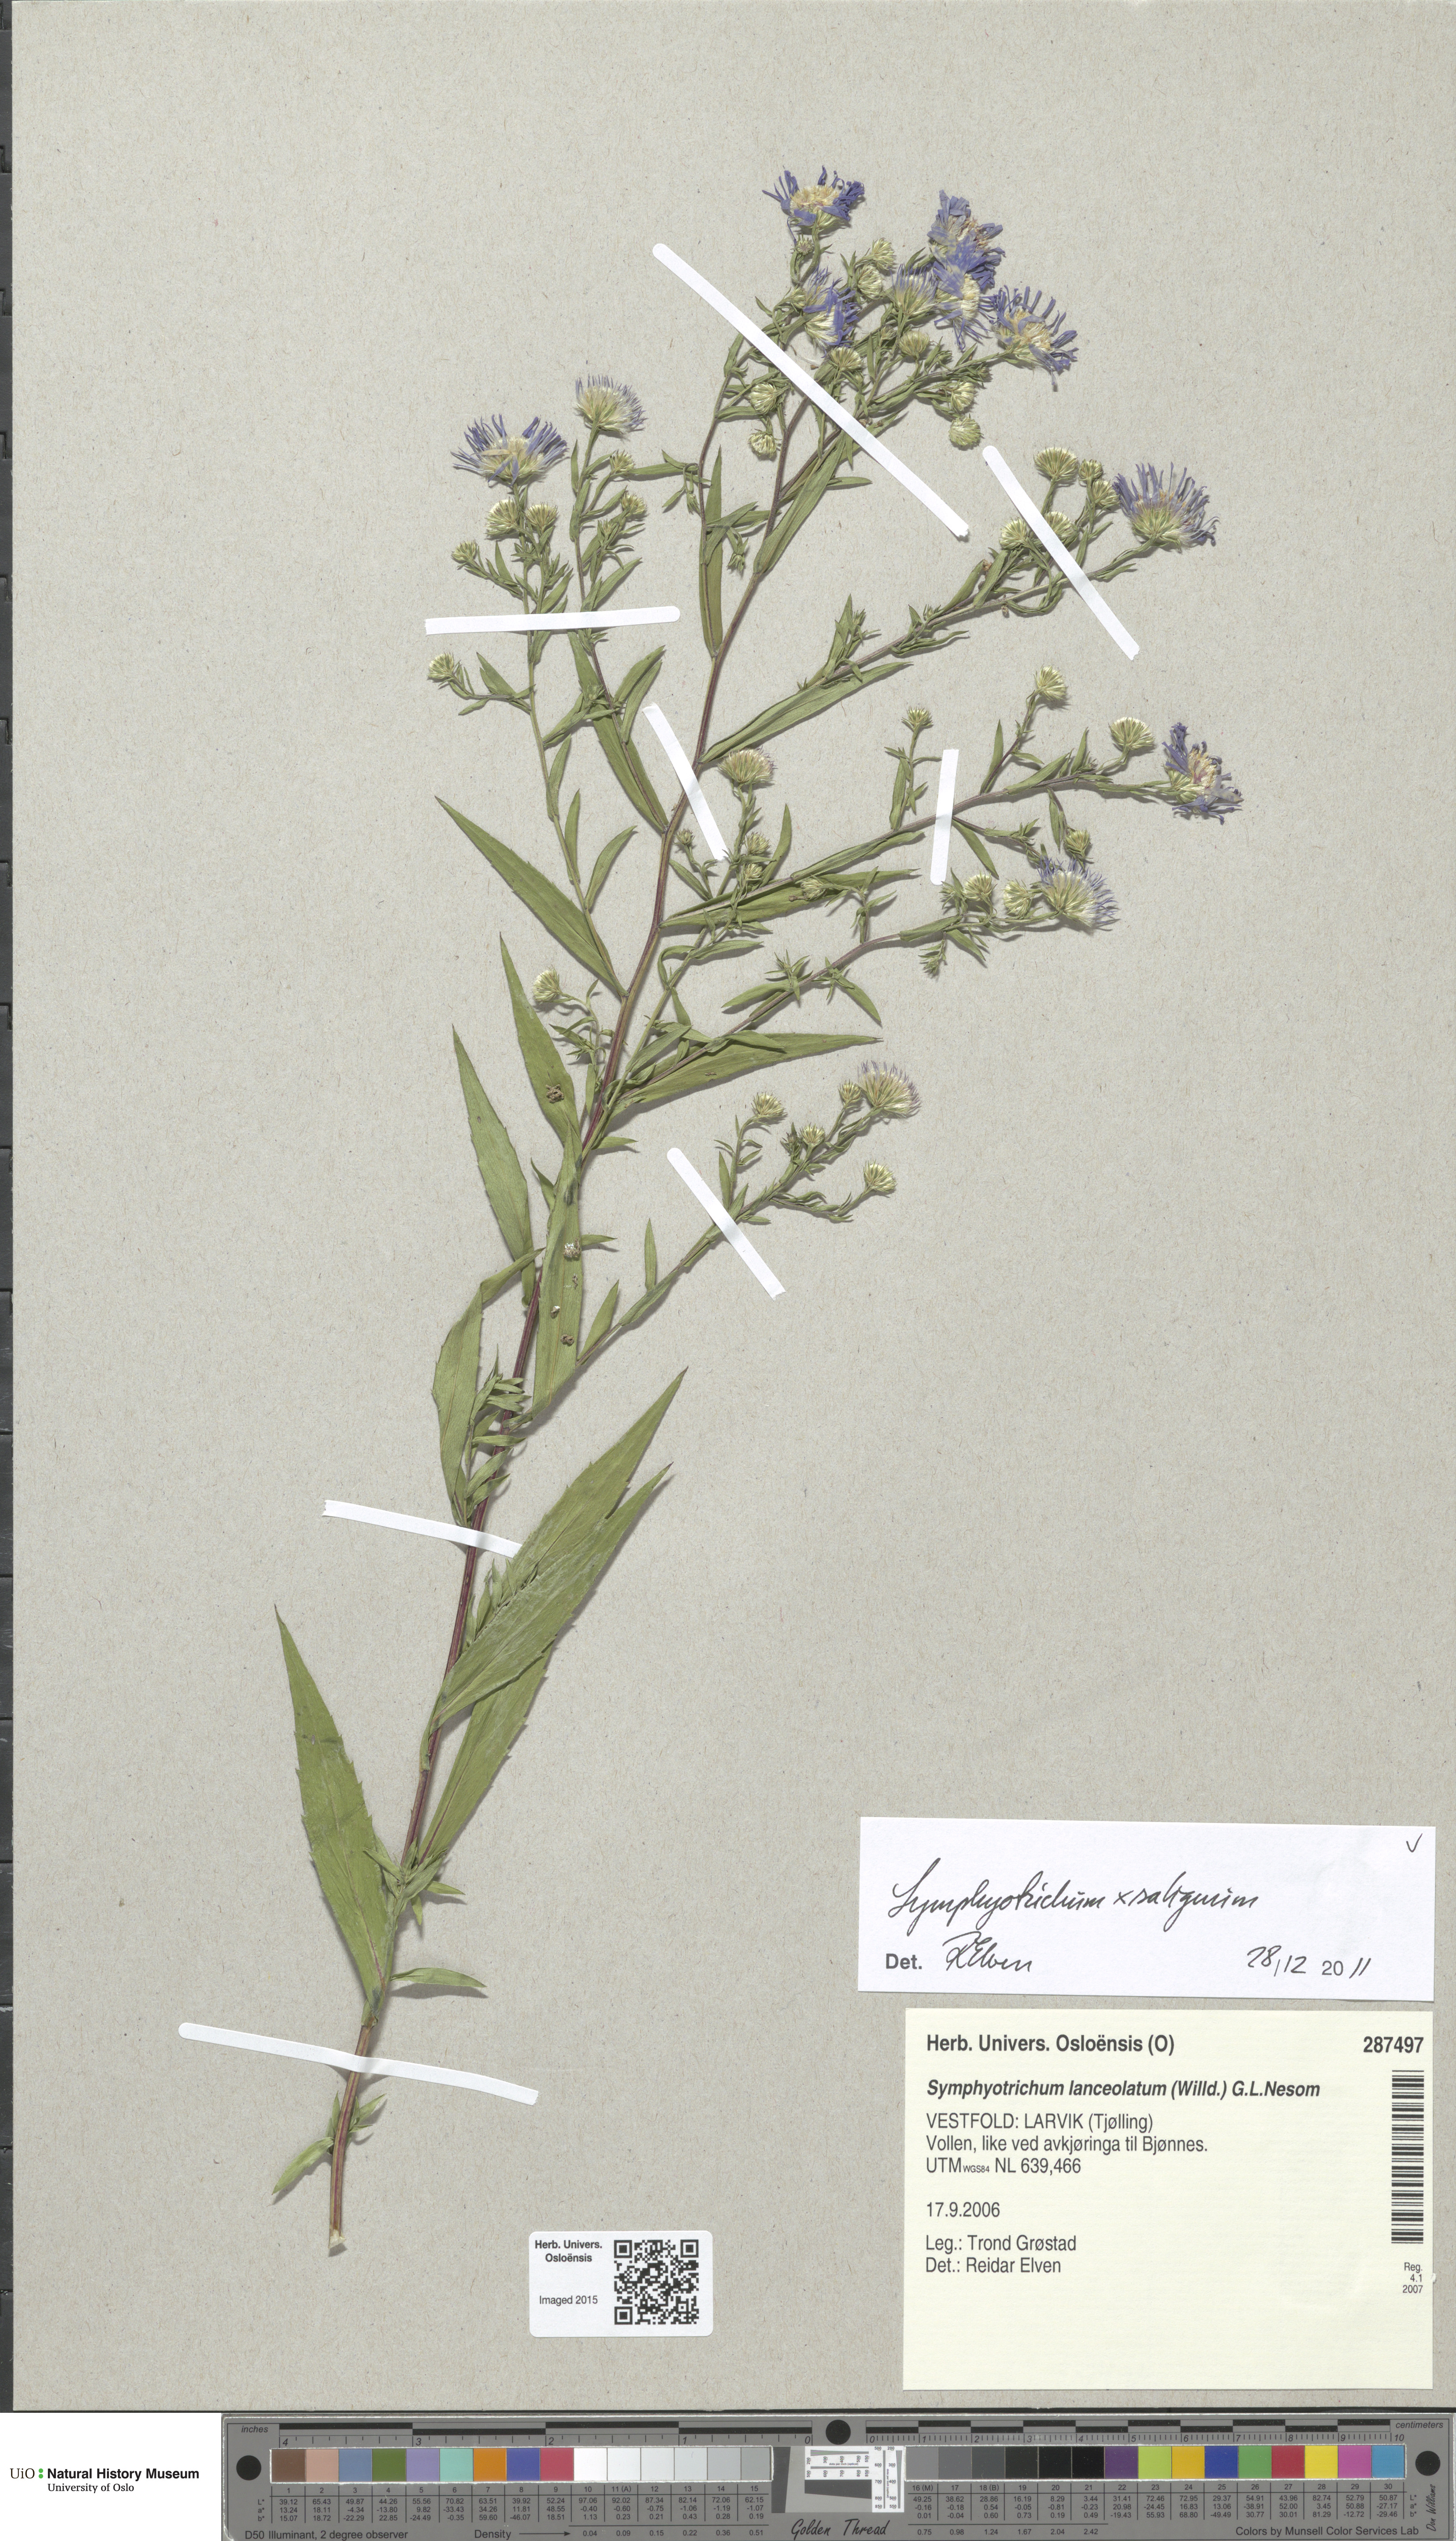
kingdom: Plantae
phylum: Tracheophyta
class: Magnoliopsida
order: Asterales
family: Asteraceae
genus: Symphyotrichum
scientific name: Symphyotrichum lanceolatum
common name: Panicled aster
